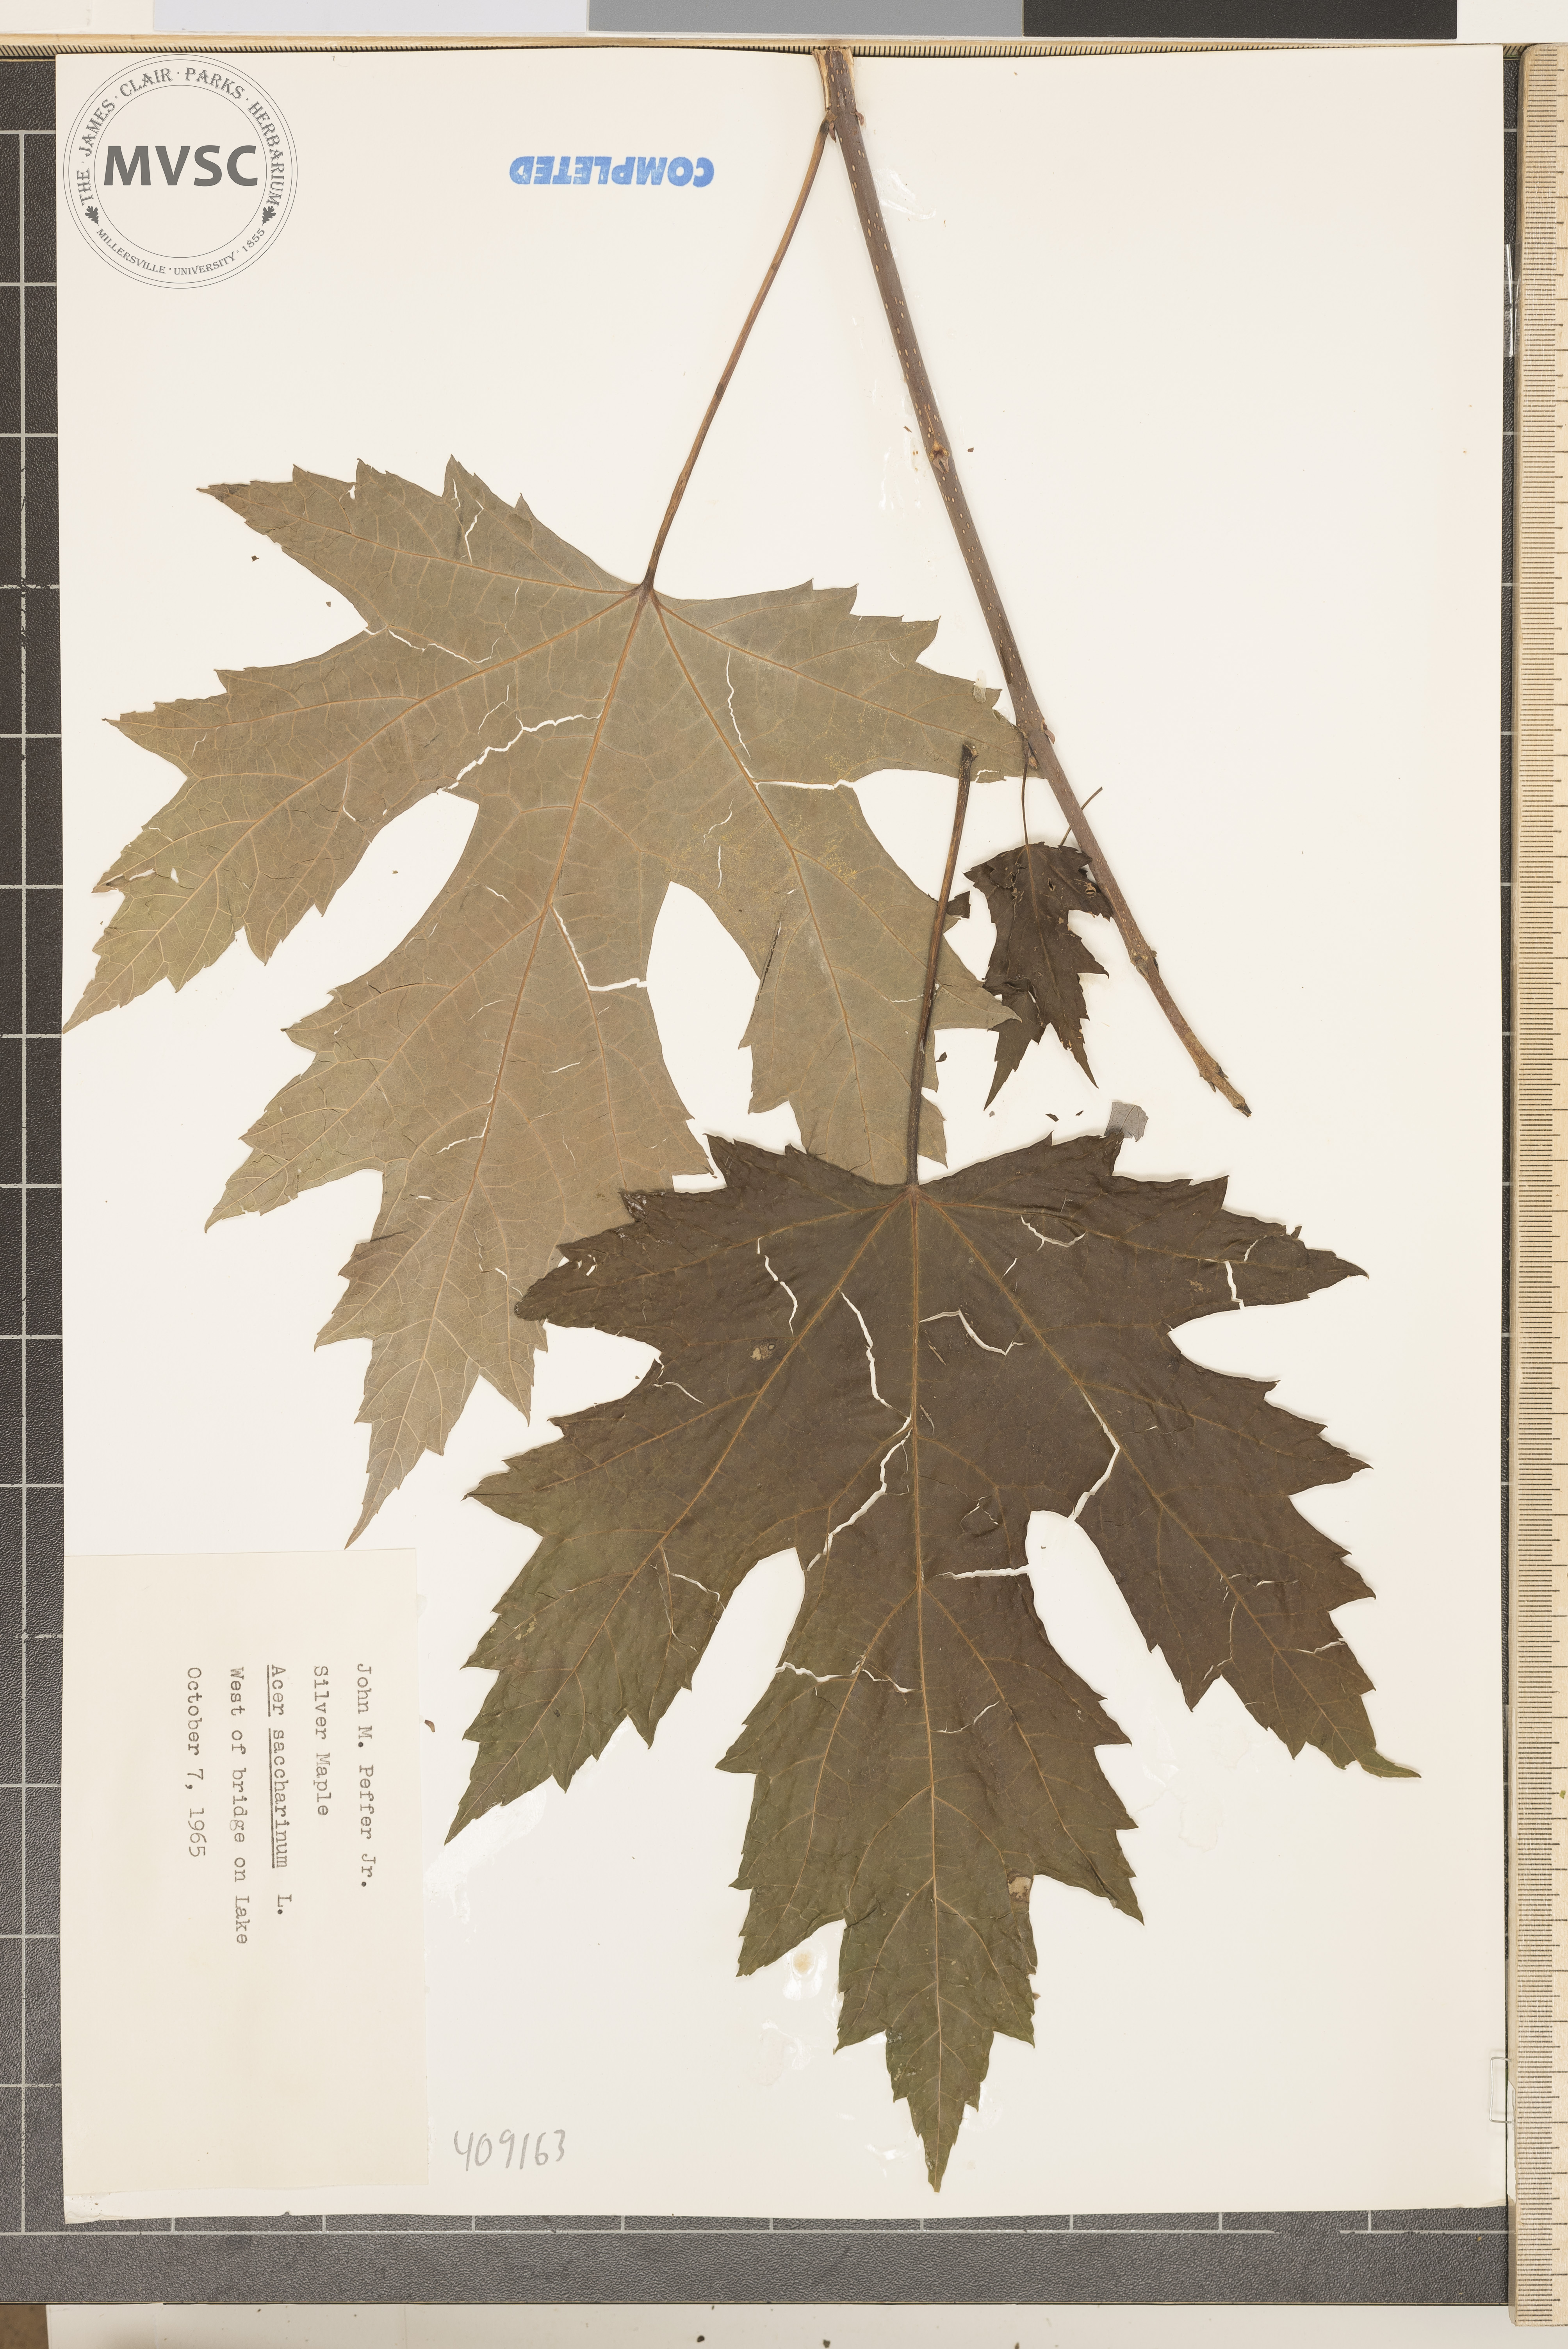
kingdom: Plantae
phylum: Tracheophyta
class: Magnoliopsida
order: Sapindales
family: Sapindaceae
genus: Acer
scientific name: Acer saccharinum
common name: Silver Maple
